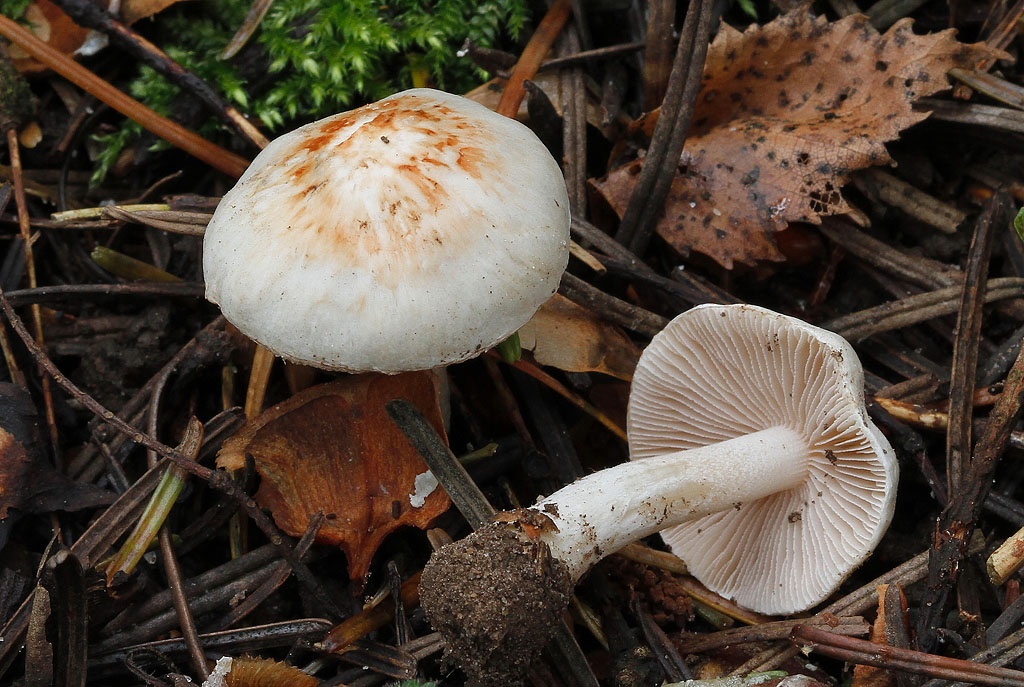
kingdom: Fungi
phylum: Basidiomycota
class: Agaricomycetes
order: Agaricales
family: Inocybaceae
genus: Inocybe
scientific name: Inocybe
